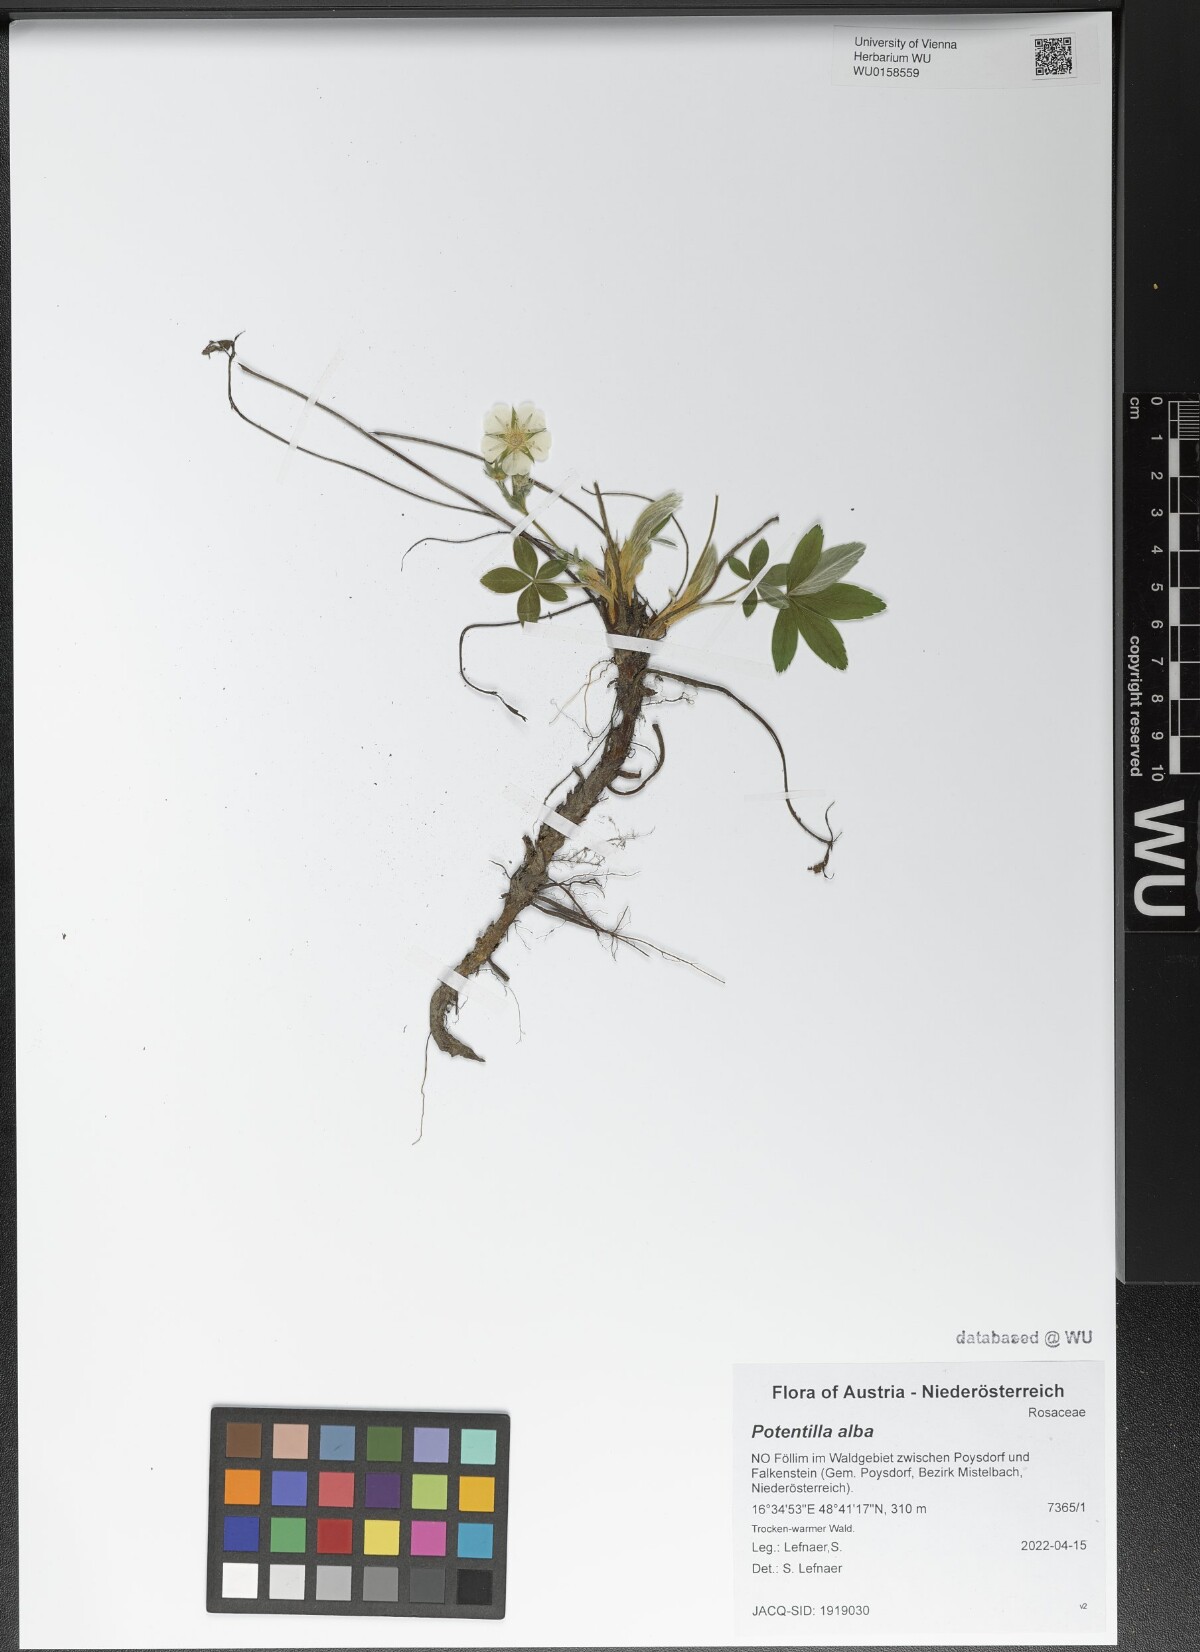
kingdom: Plantae
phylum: Tracheophyta
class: Magnoliopsida
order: Rosales
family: Rosaceae
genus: Potentilla
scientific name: Potentilla alba
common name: White cinquefoil
